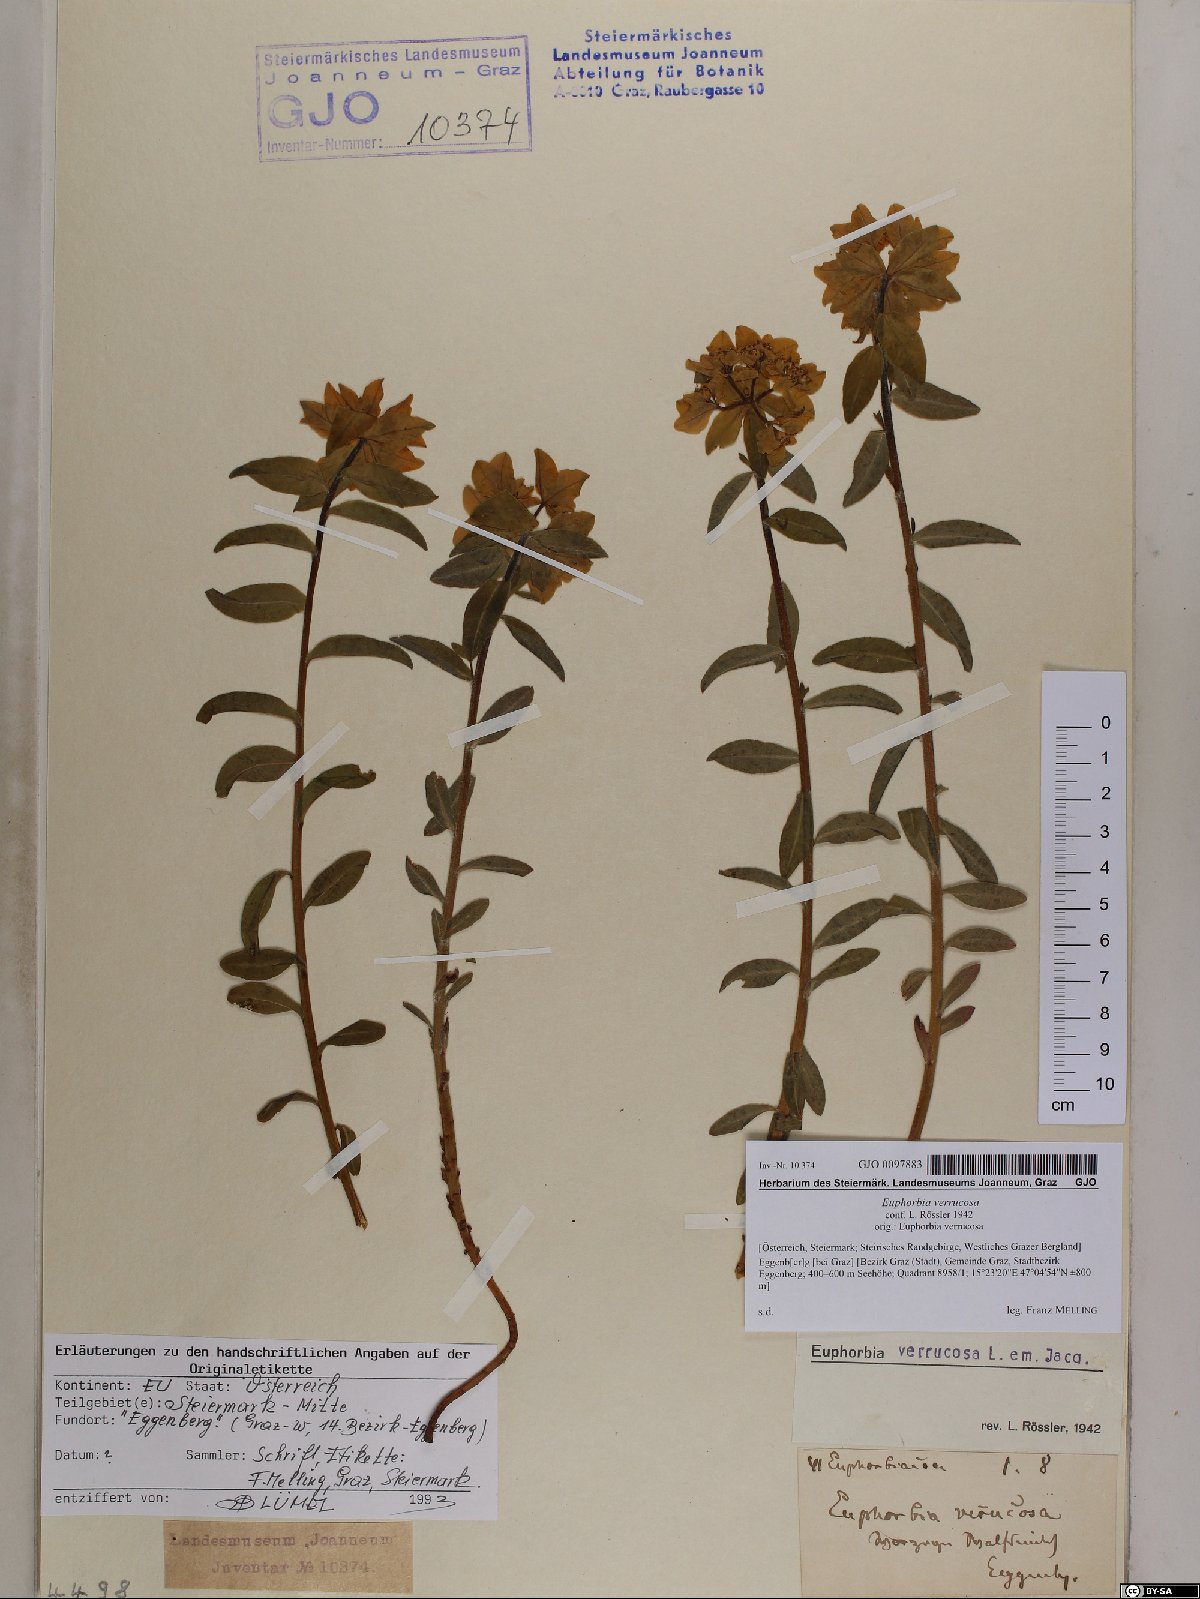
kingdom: Plantae
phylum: Tracheophyta
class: Magnoliopsida
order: Malpighiales
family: Euphorbiaceae
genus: Euphorbia
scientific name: Euphorbia verrucosa
